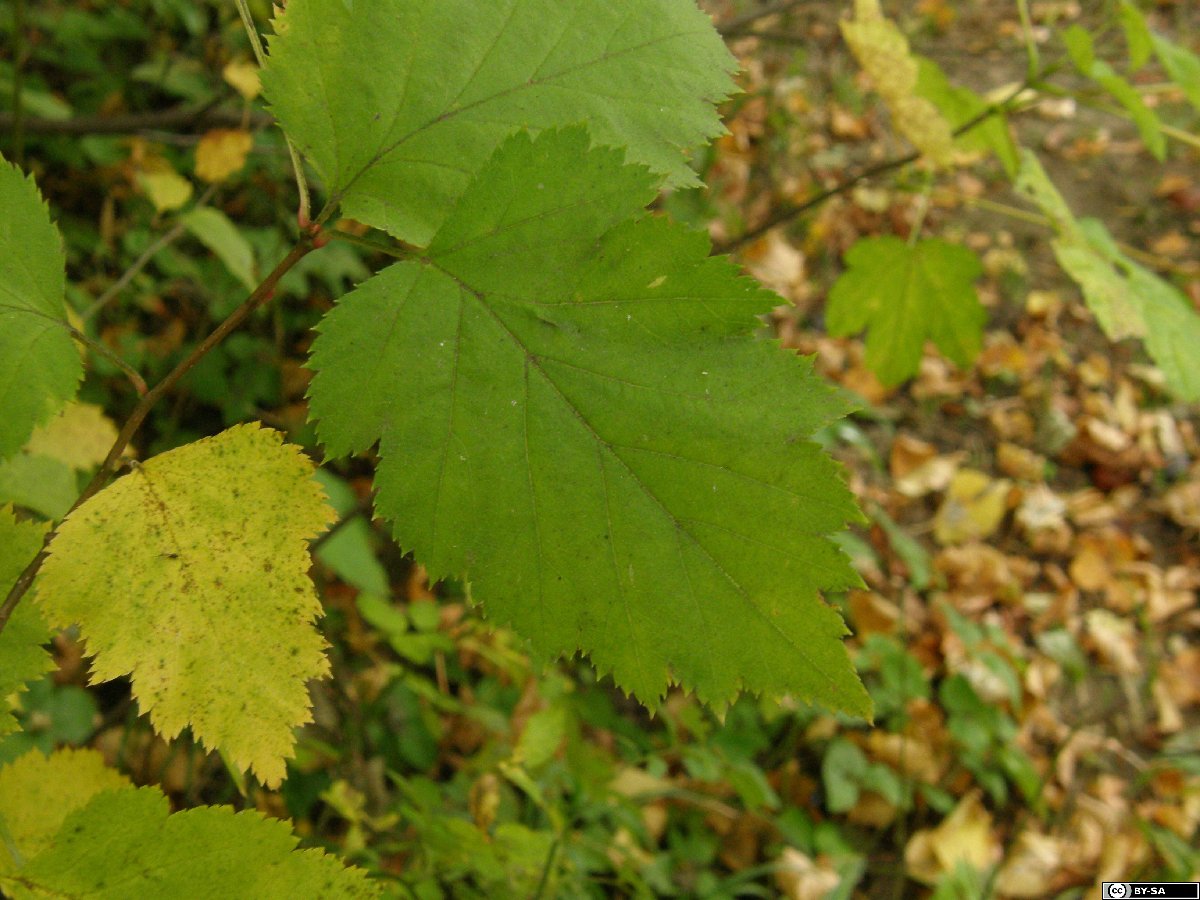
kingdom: Plantae
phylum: Tracheophyta
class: Magnoliopsida
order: Rosales
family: Rosaceae
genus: Crataegus
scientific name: Crataegus coccinea
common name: Scarlet hawthorn
